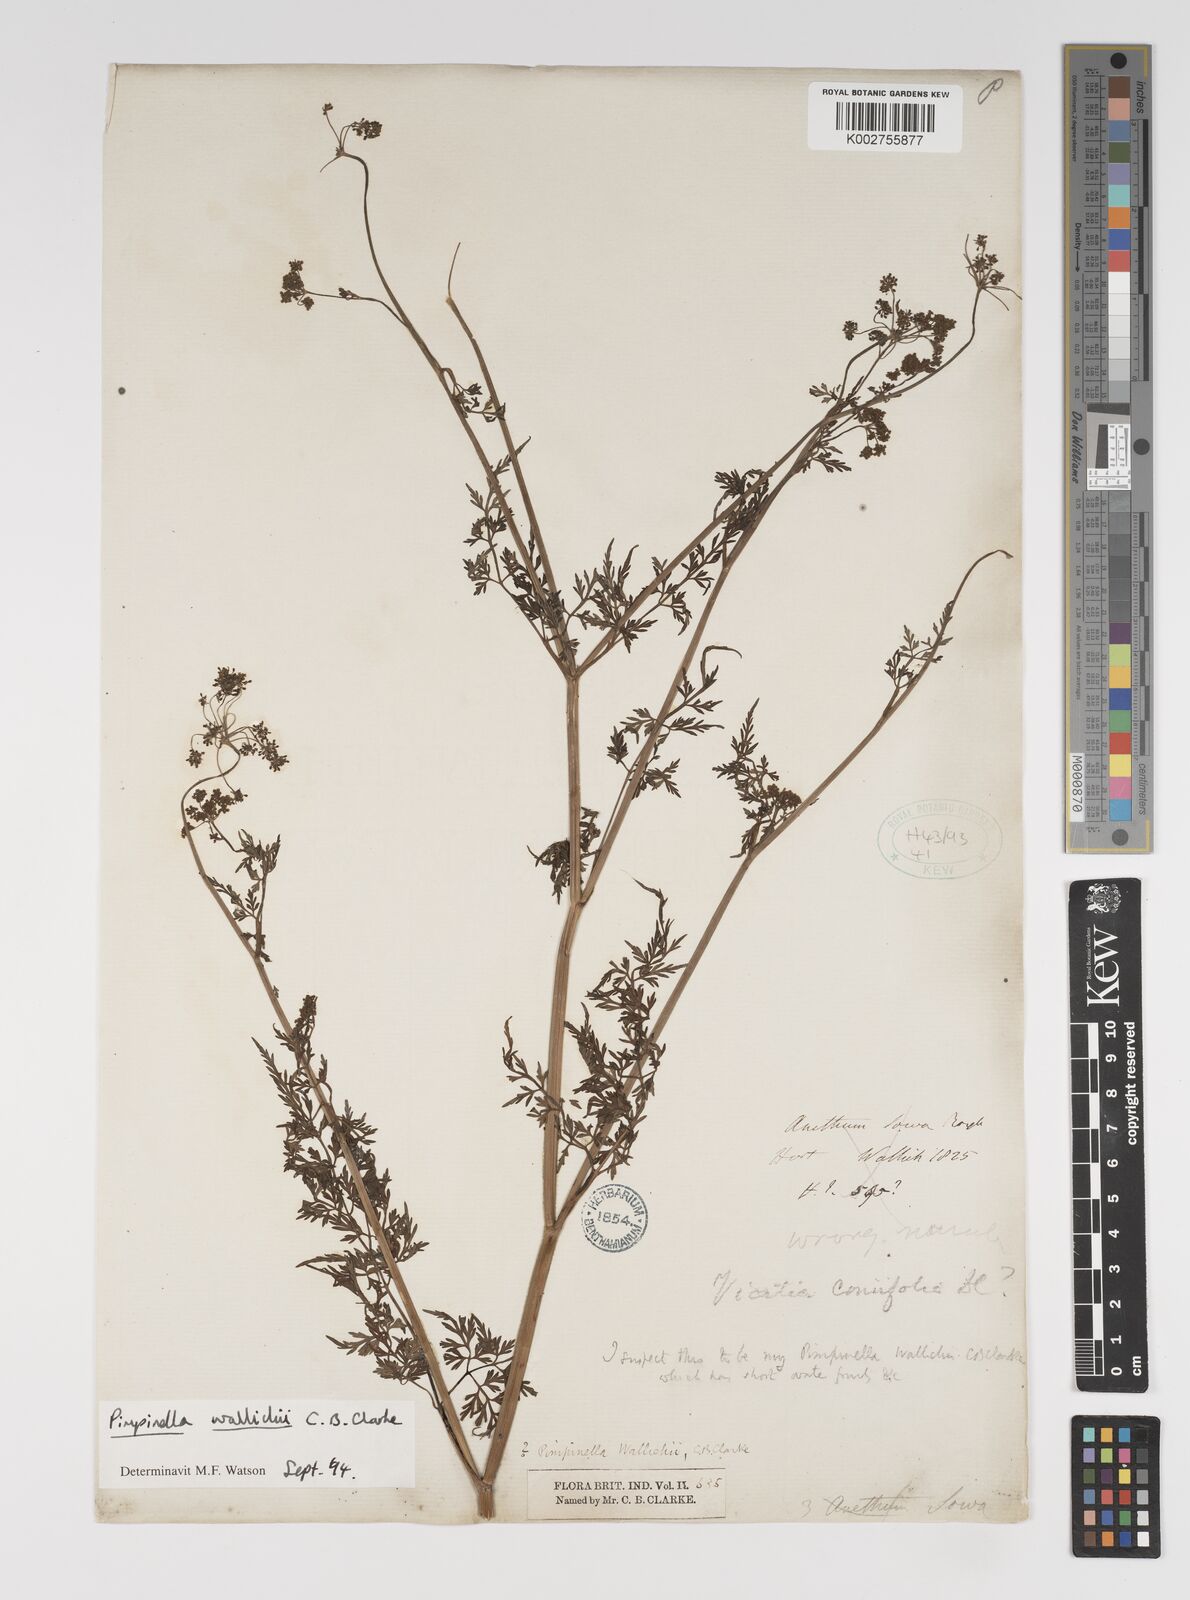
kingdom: Plantae
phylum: Tracheophyta
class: Magnoliopsida
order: Apiales
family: Apiaceae
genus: Pimpinella
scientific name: Pimpinella
